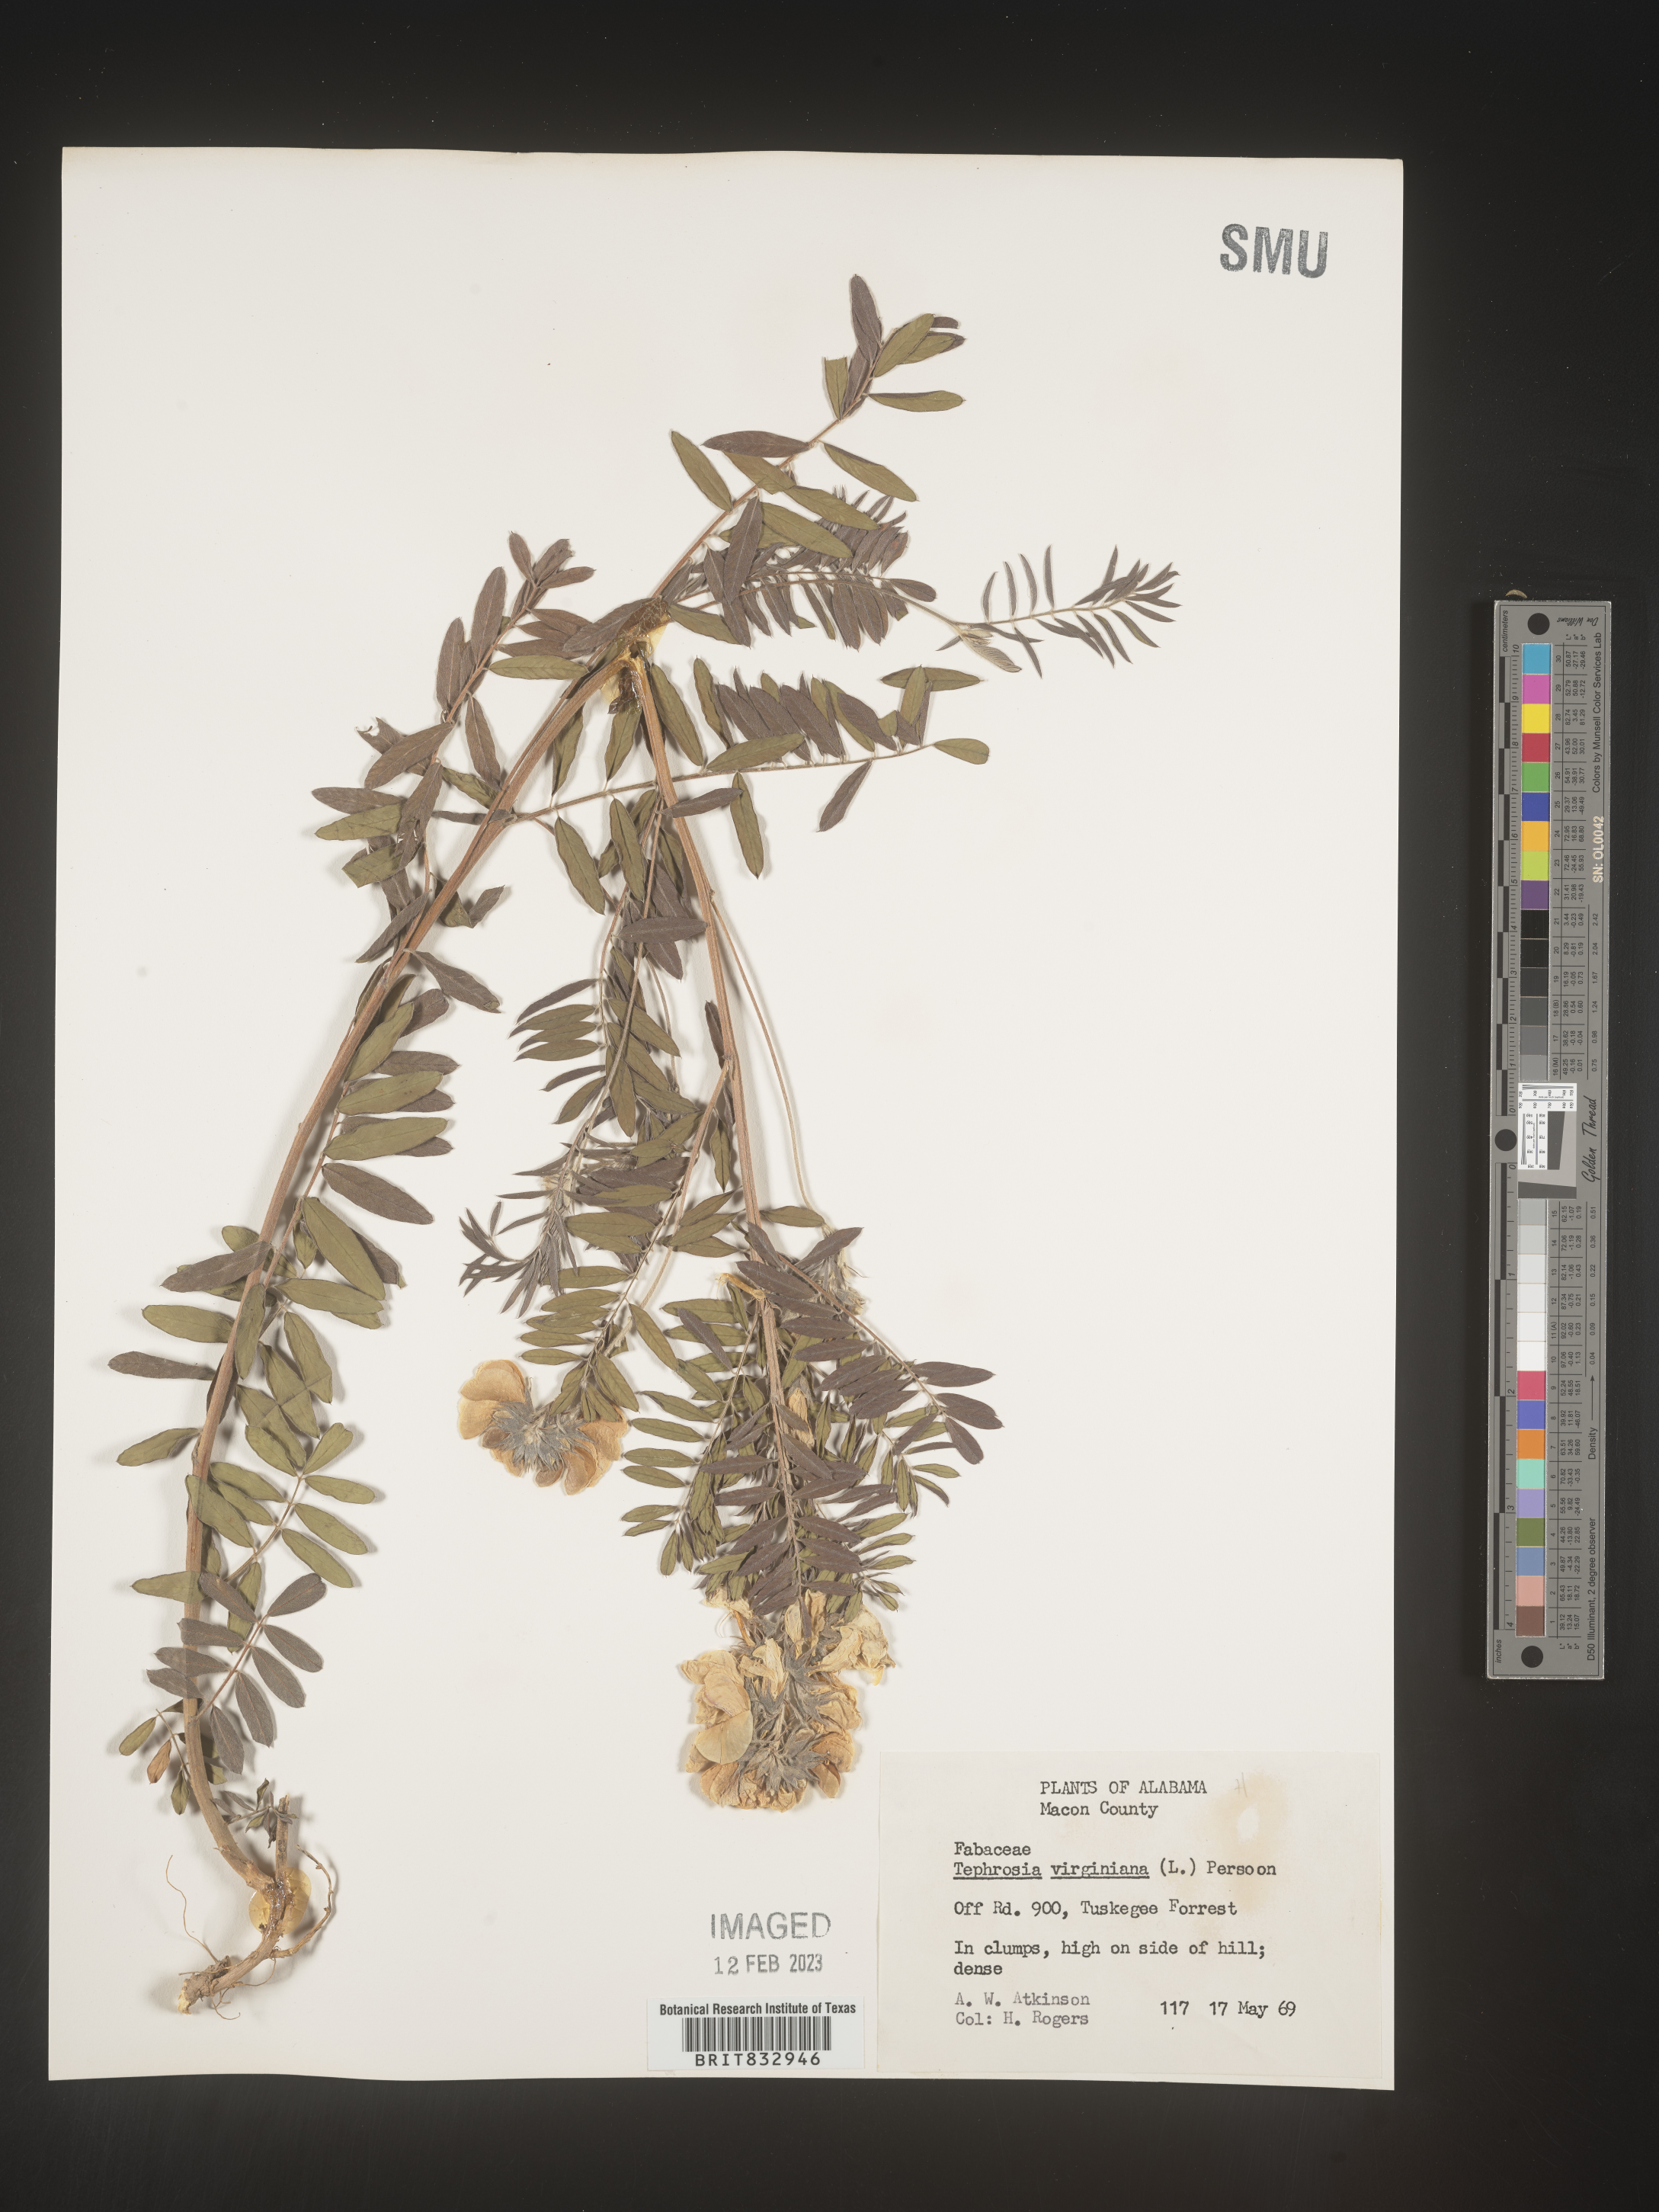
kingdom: Plantae
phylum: Tracheophyta
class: Magnoliopsida
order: Fabales
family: Fabaceae
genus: Tephrosia
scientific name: Tephrosia virginiana
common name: Rabbit-pea
